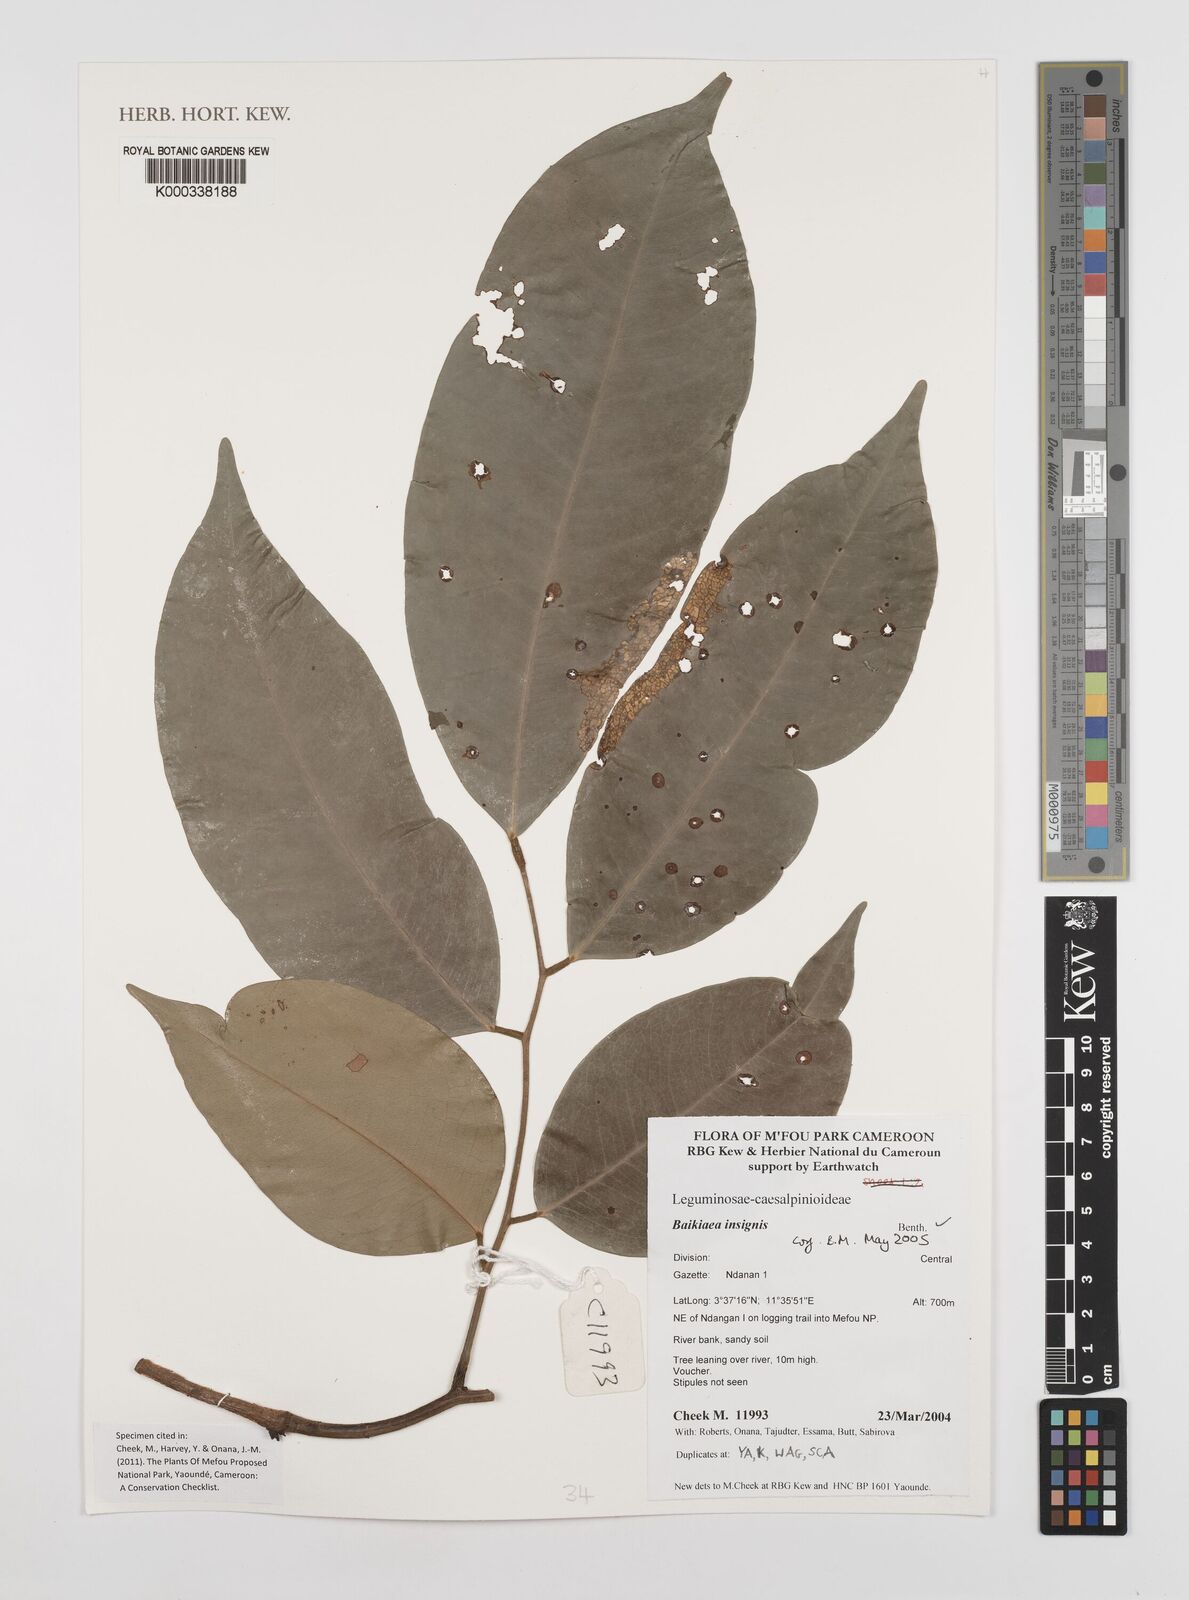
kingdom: Plantae
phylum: Tracheophyta
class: Magnoliopsida
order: Fabales
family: Fabaceae
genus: Baikiaea
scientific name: Baikiaea insignis
